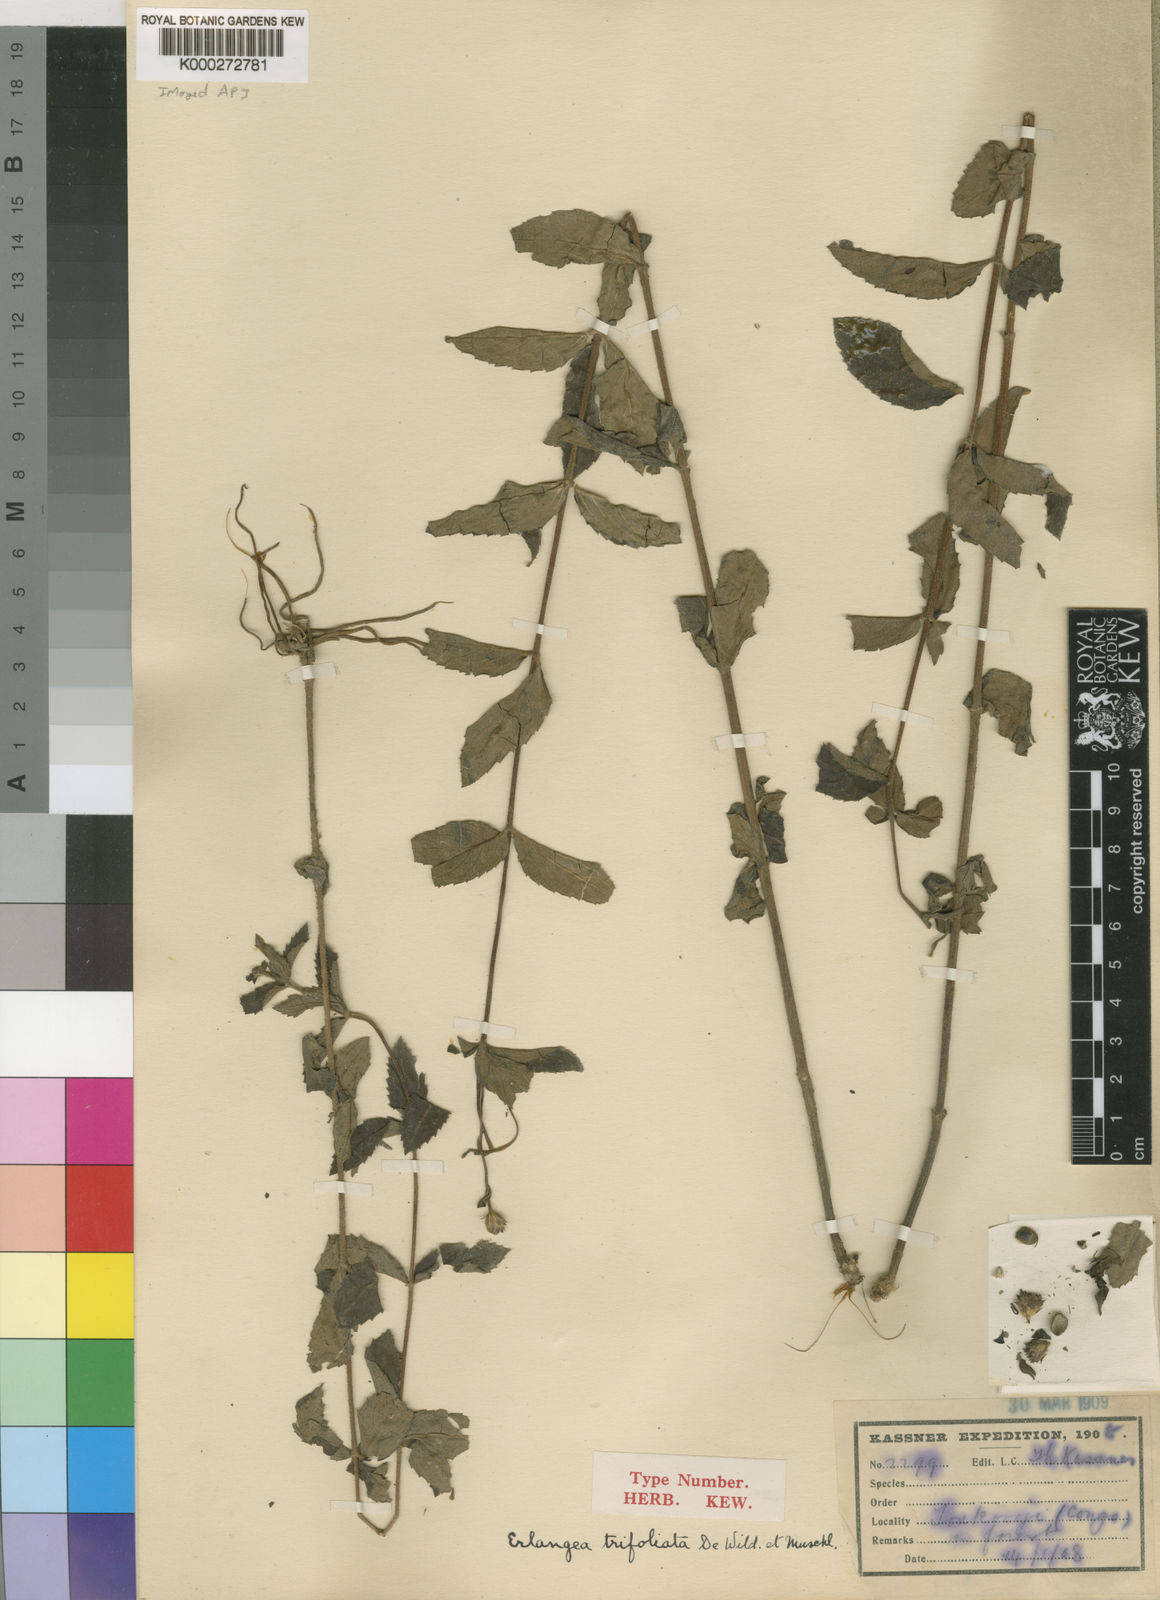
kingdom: Plantae
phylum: Tracheophyta
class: Magnoliopsida
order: Asterales
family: Asteraceae
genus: Bothriocline
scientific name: Bothriocline trifoliata
